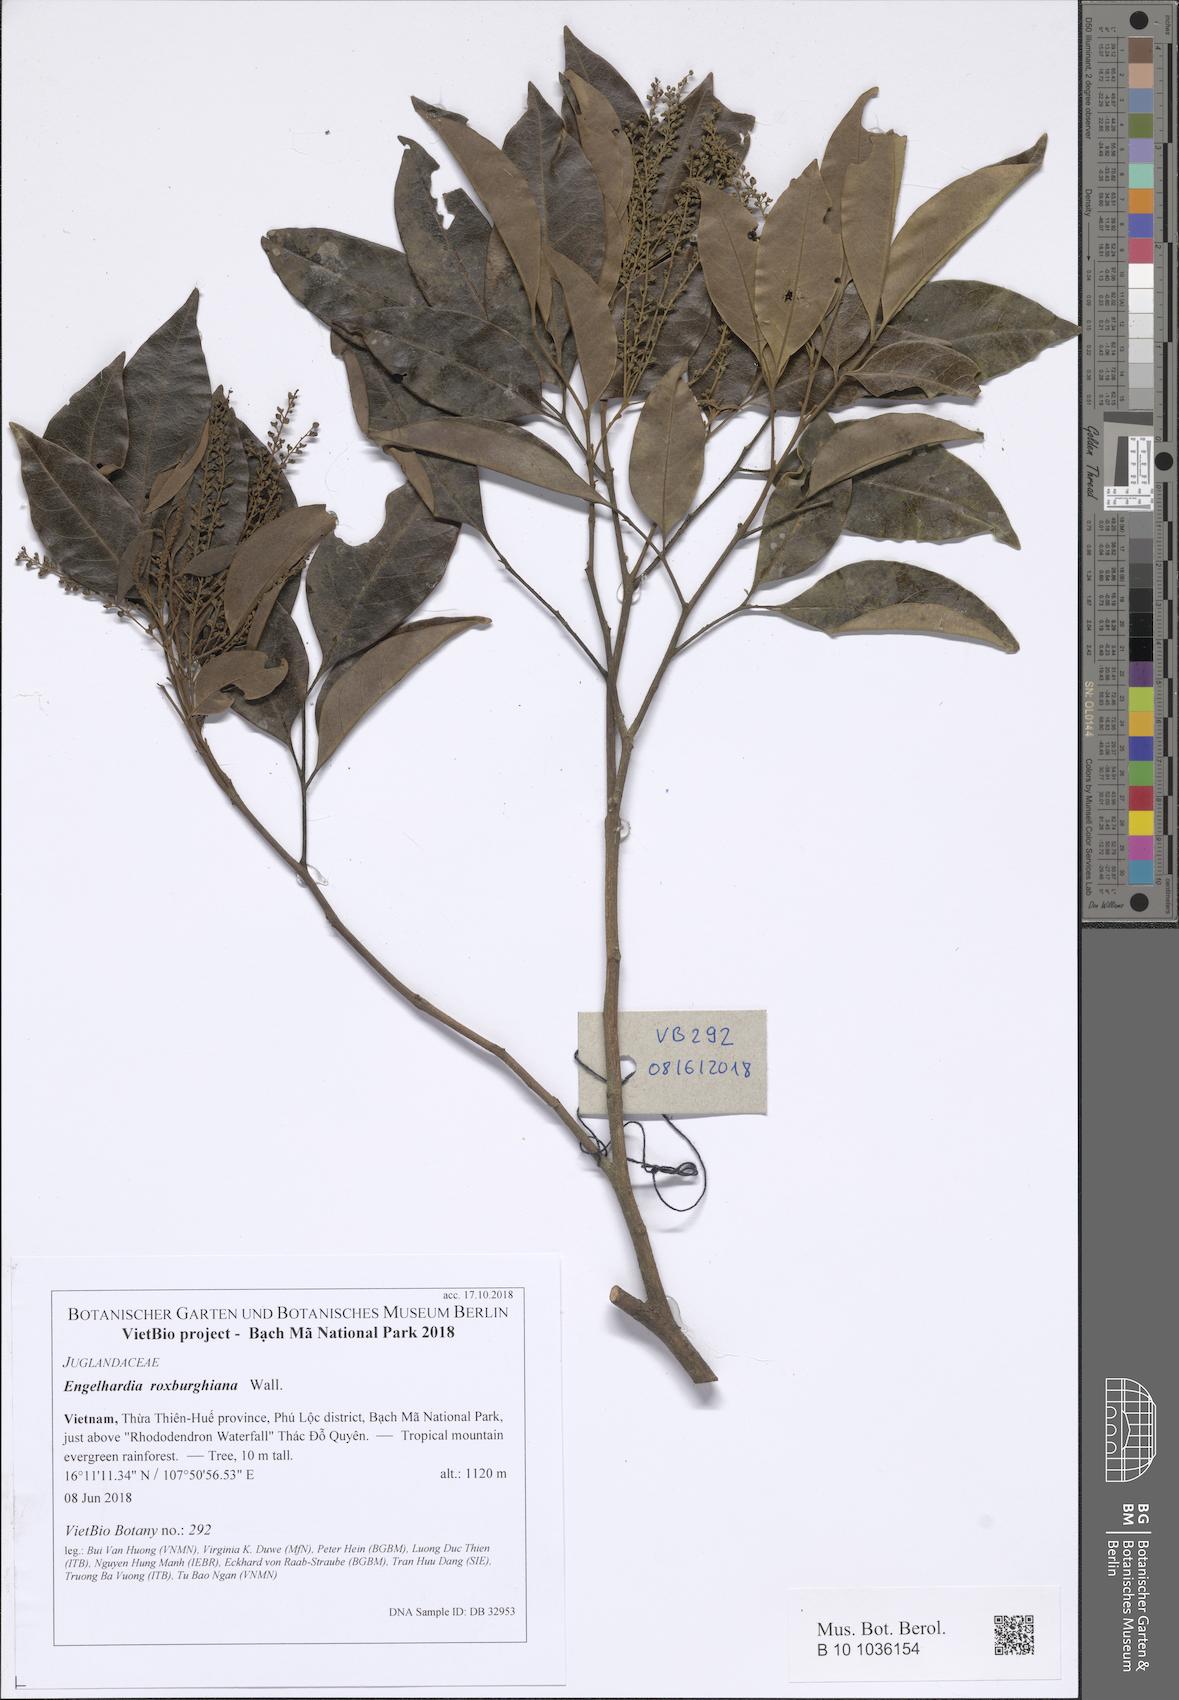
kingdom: Plantae
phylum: Tracheophyta
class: Magnoliopsida
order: Fagales
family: Juglandaceae
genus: Engelhardia
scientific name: Engelhardia roxburghiana
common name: Golden malay beam
